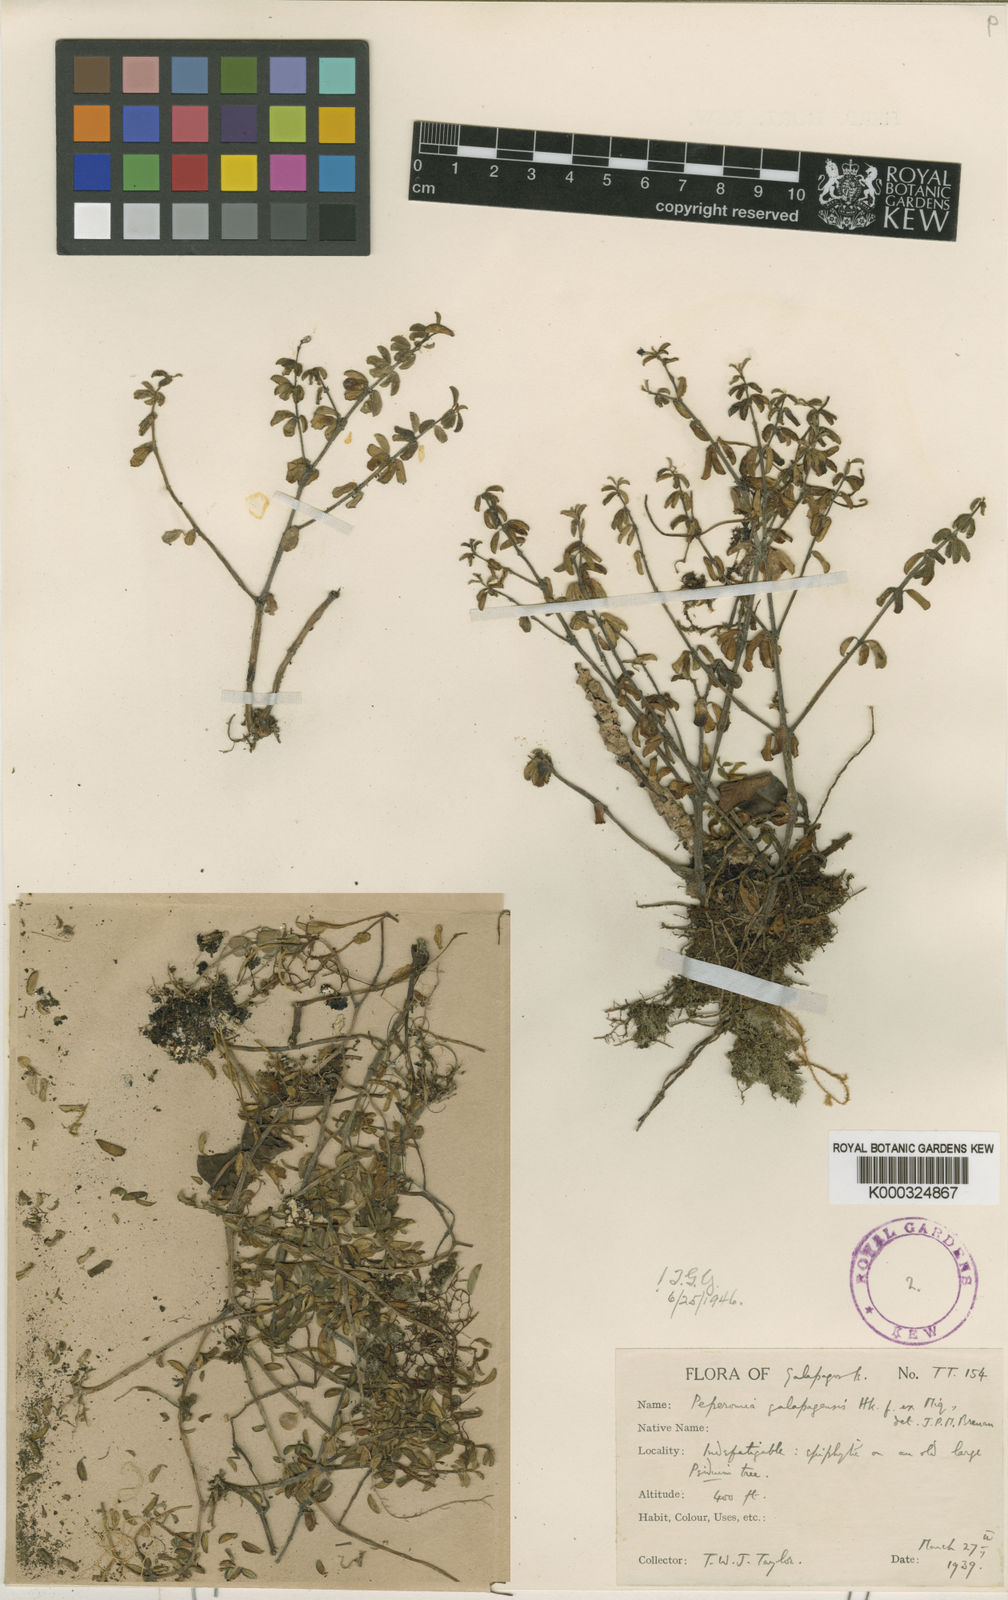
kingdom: Plantae
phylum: Tracheophyta
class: Magnoliopsida
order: Piperales
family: Piperaceae
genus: Peperomia
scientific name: Peperomia inaequalifolia
